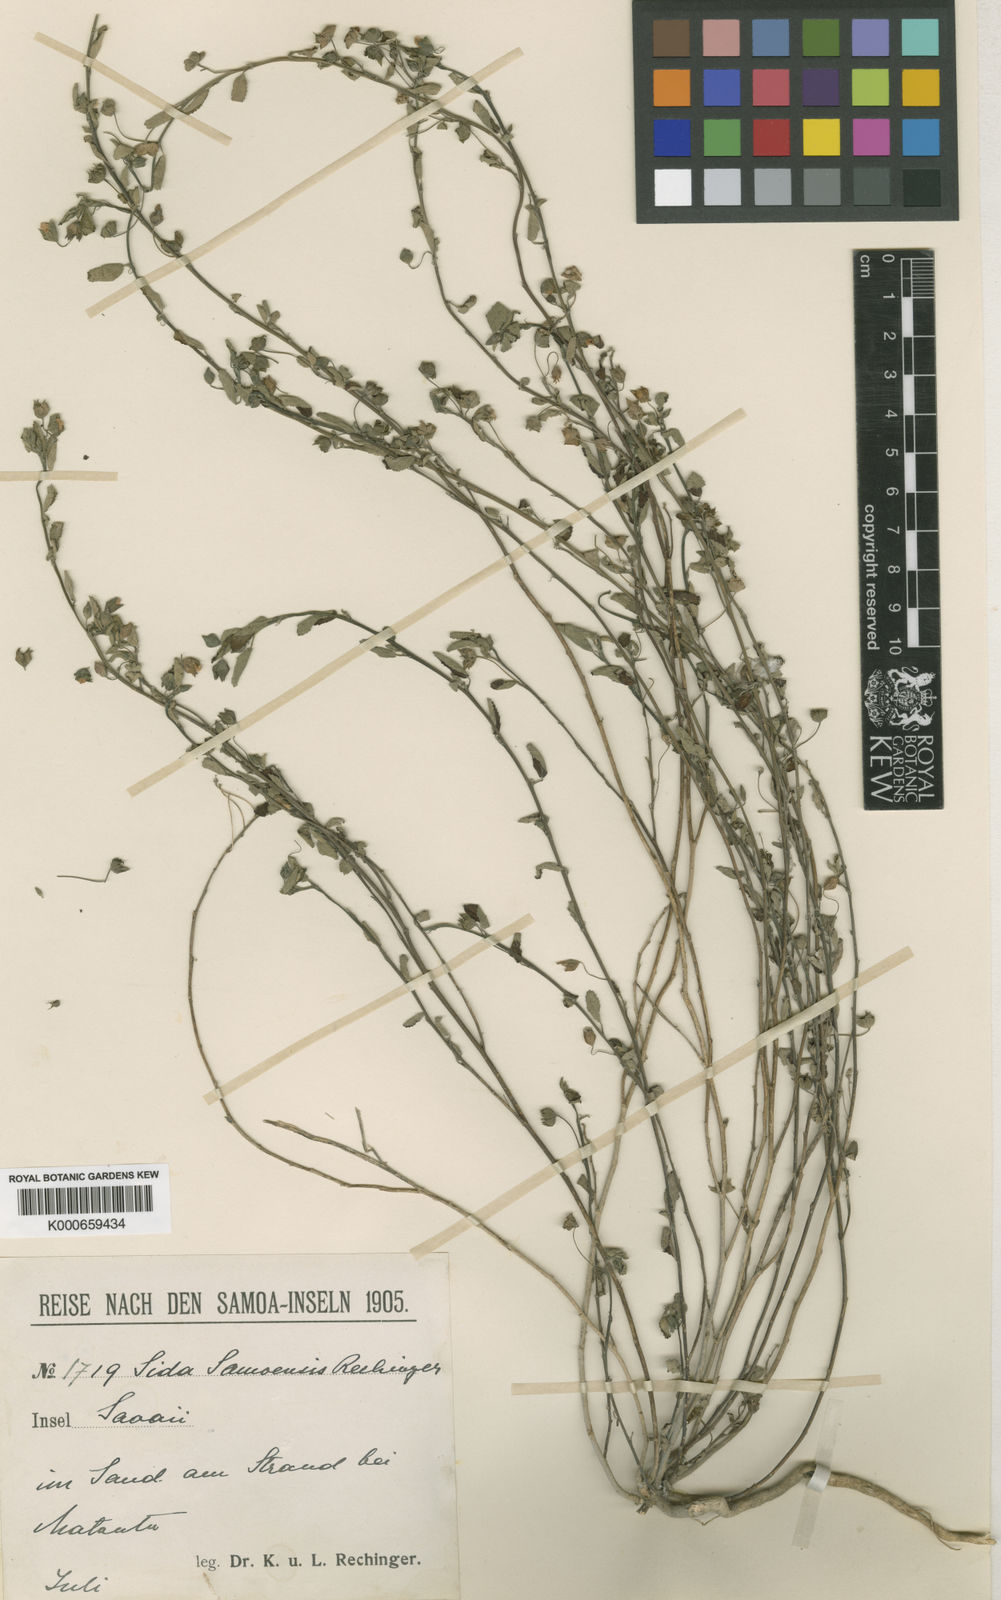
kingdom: Plantae
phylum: Tracheophyta
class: Magnoliopsida
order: Malvales
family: Malvaceae
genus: Sida
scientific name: Sida pusilla
